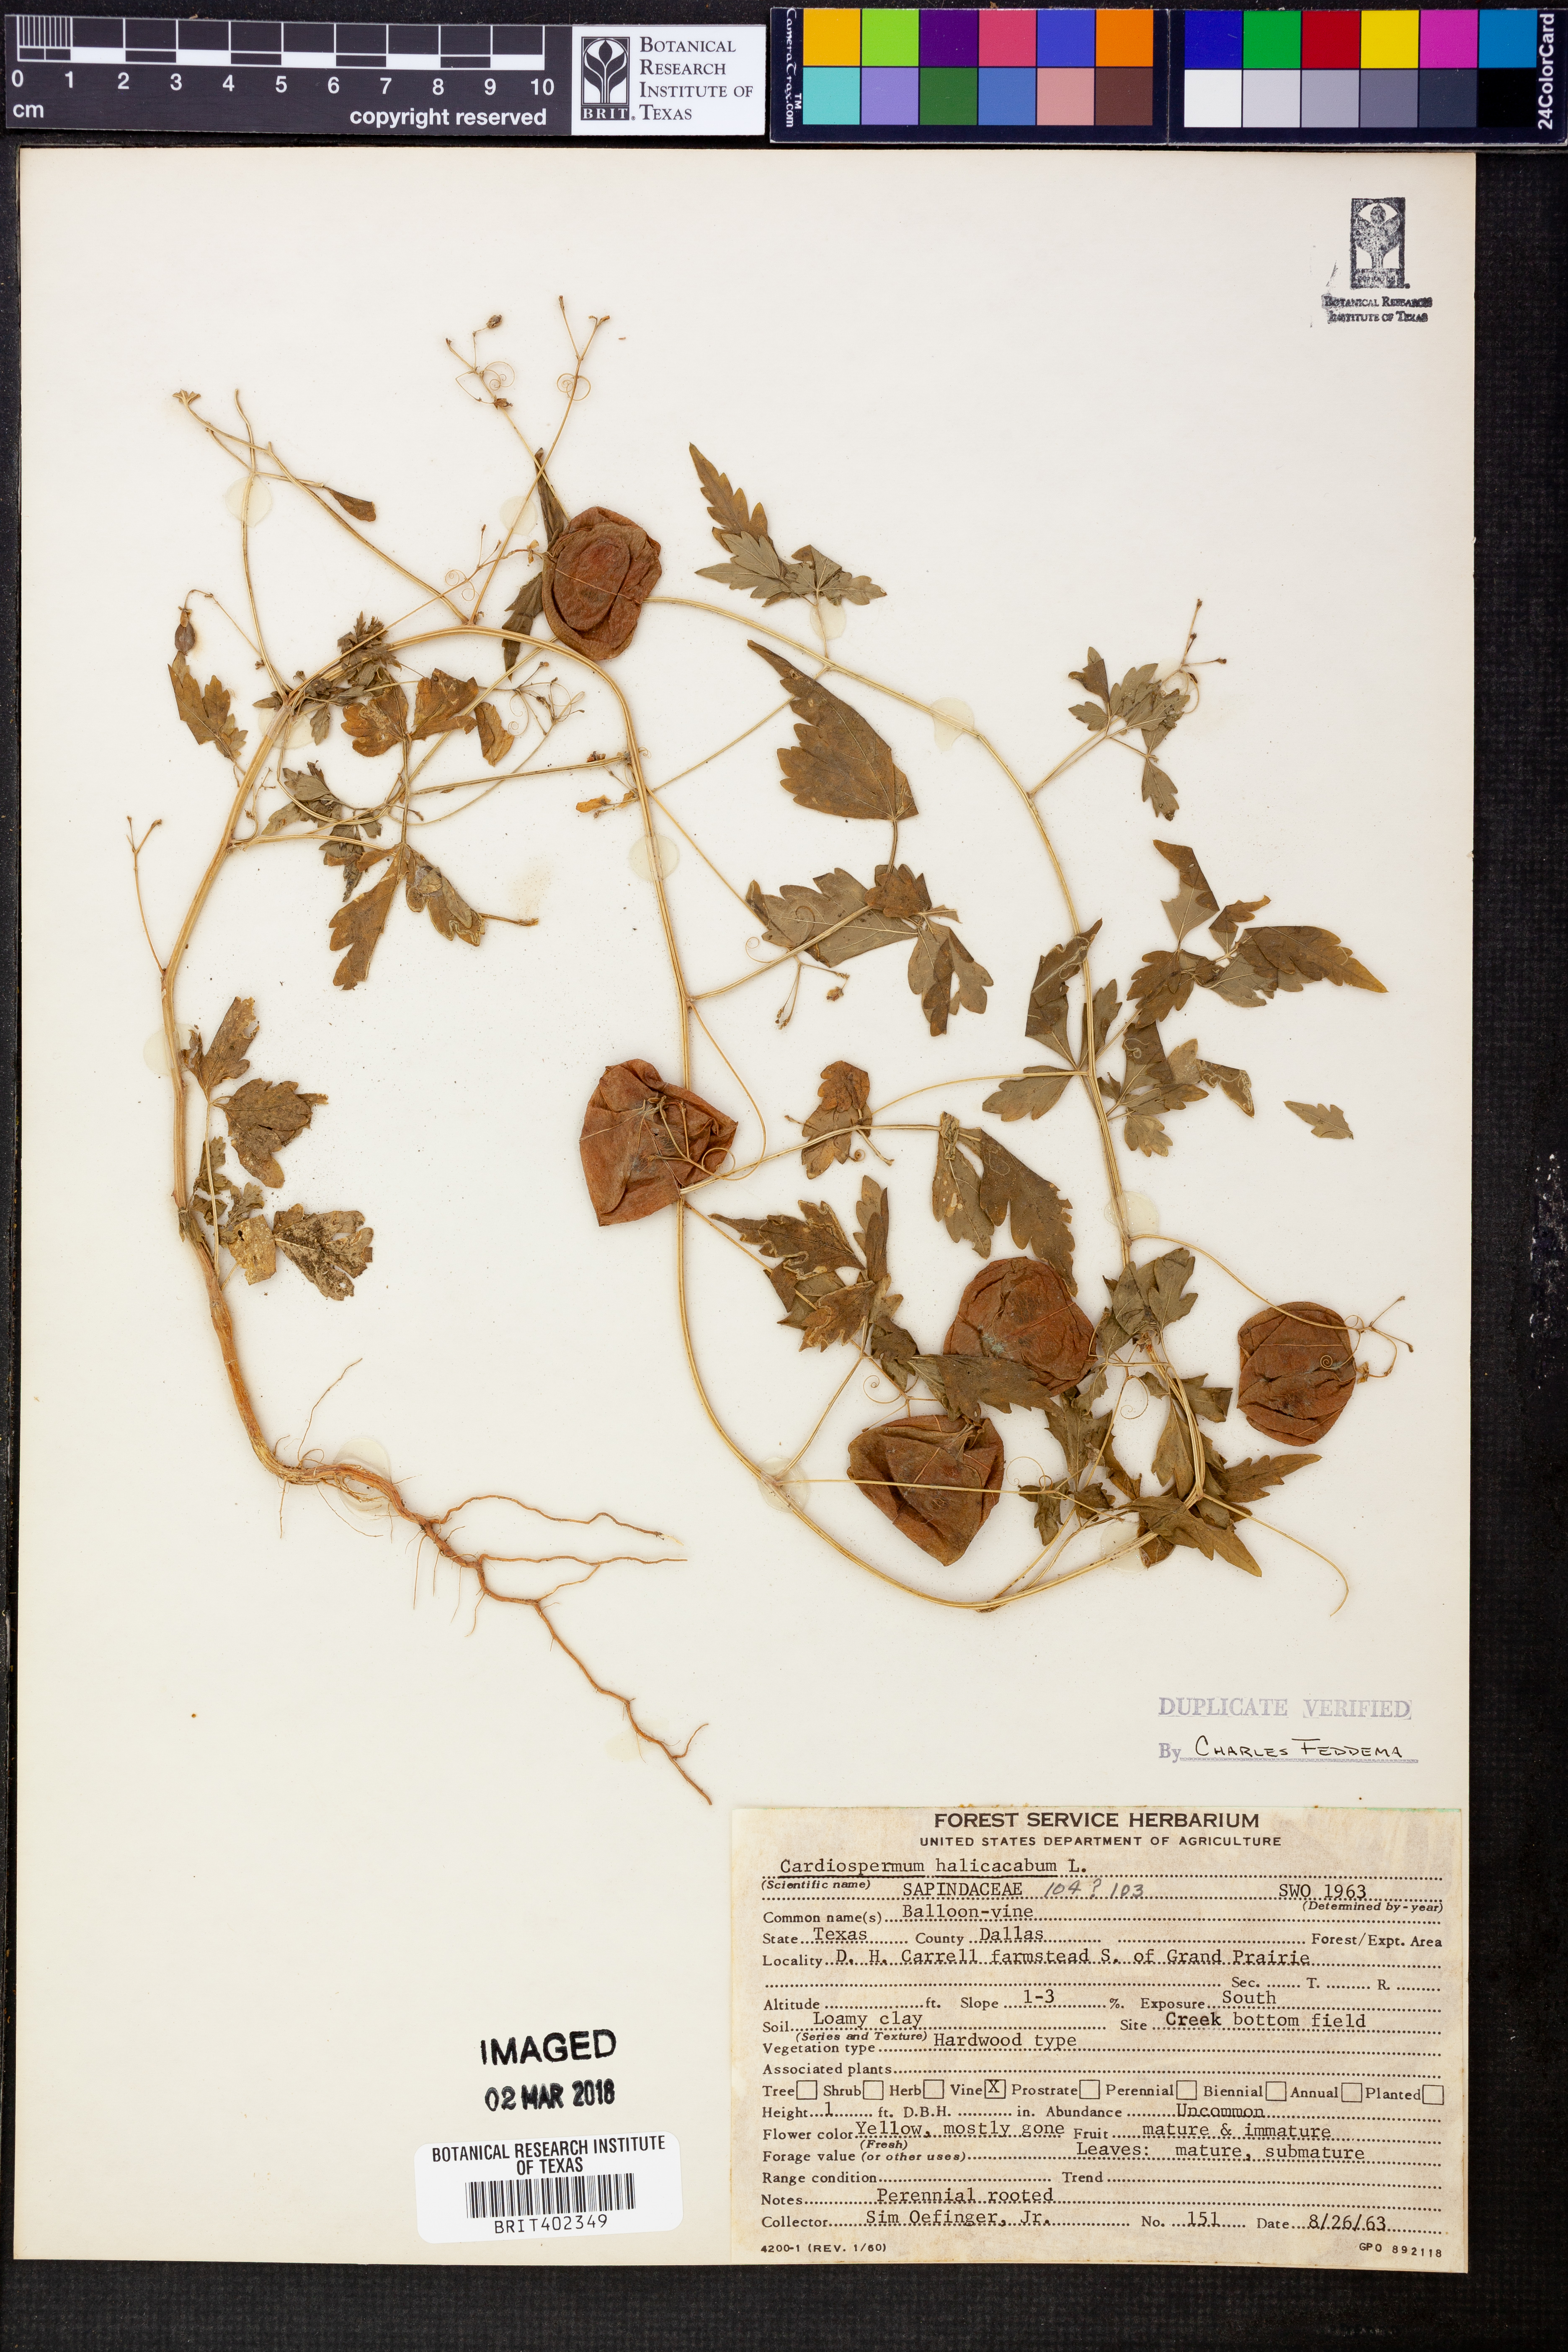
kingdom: Plantae
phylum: Tracheophyta
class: Magnoliopsida
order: Sapindales
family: Sapindaceae
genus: Cardiospermum
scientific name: Cardiospermum halicacabum
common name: Balloon vine
